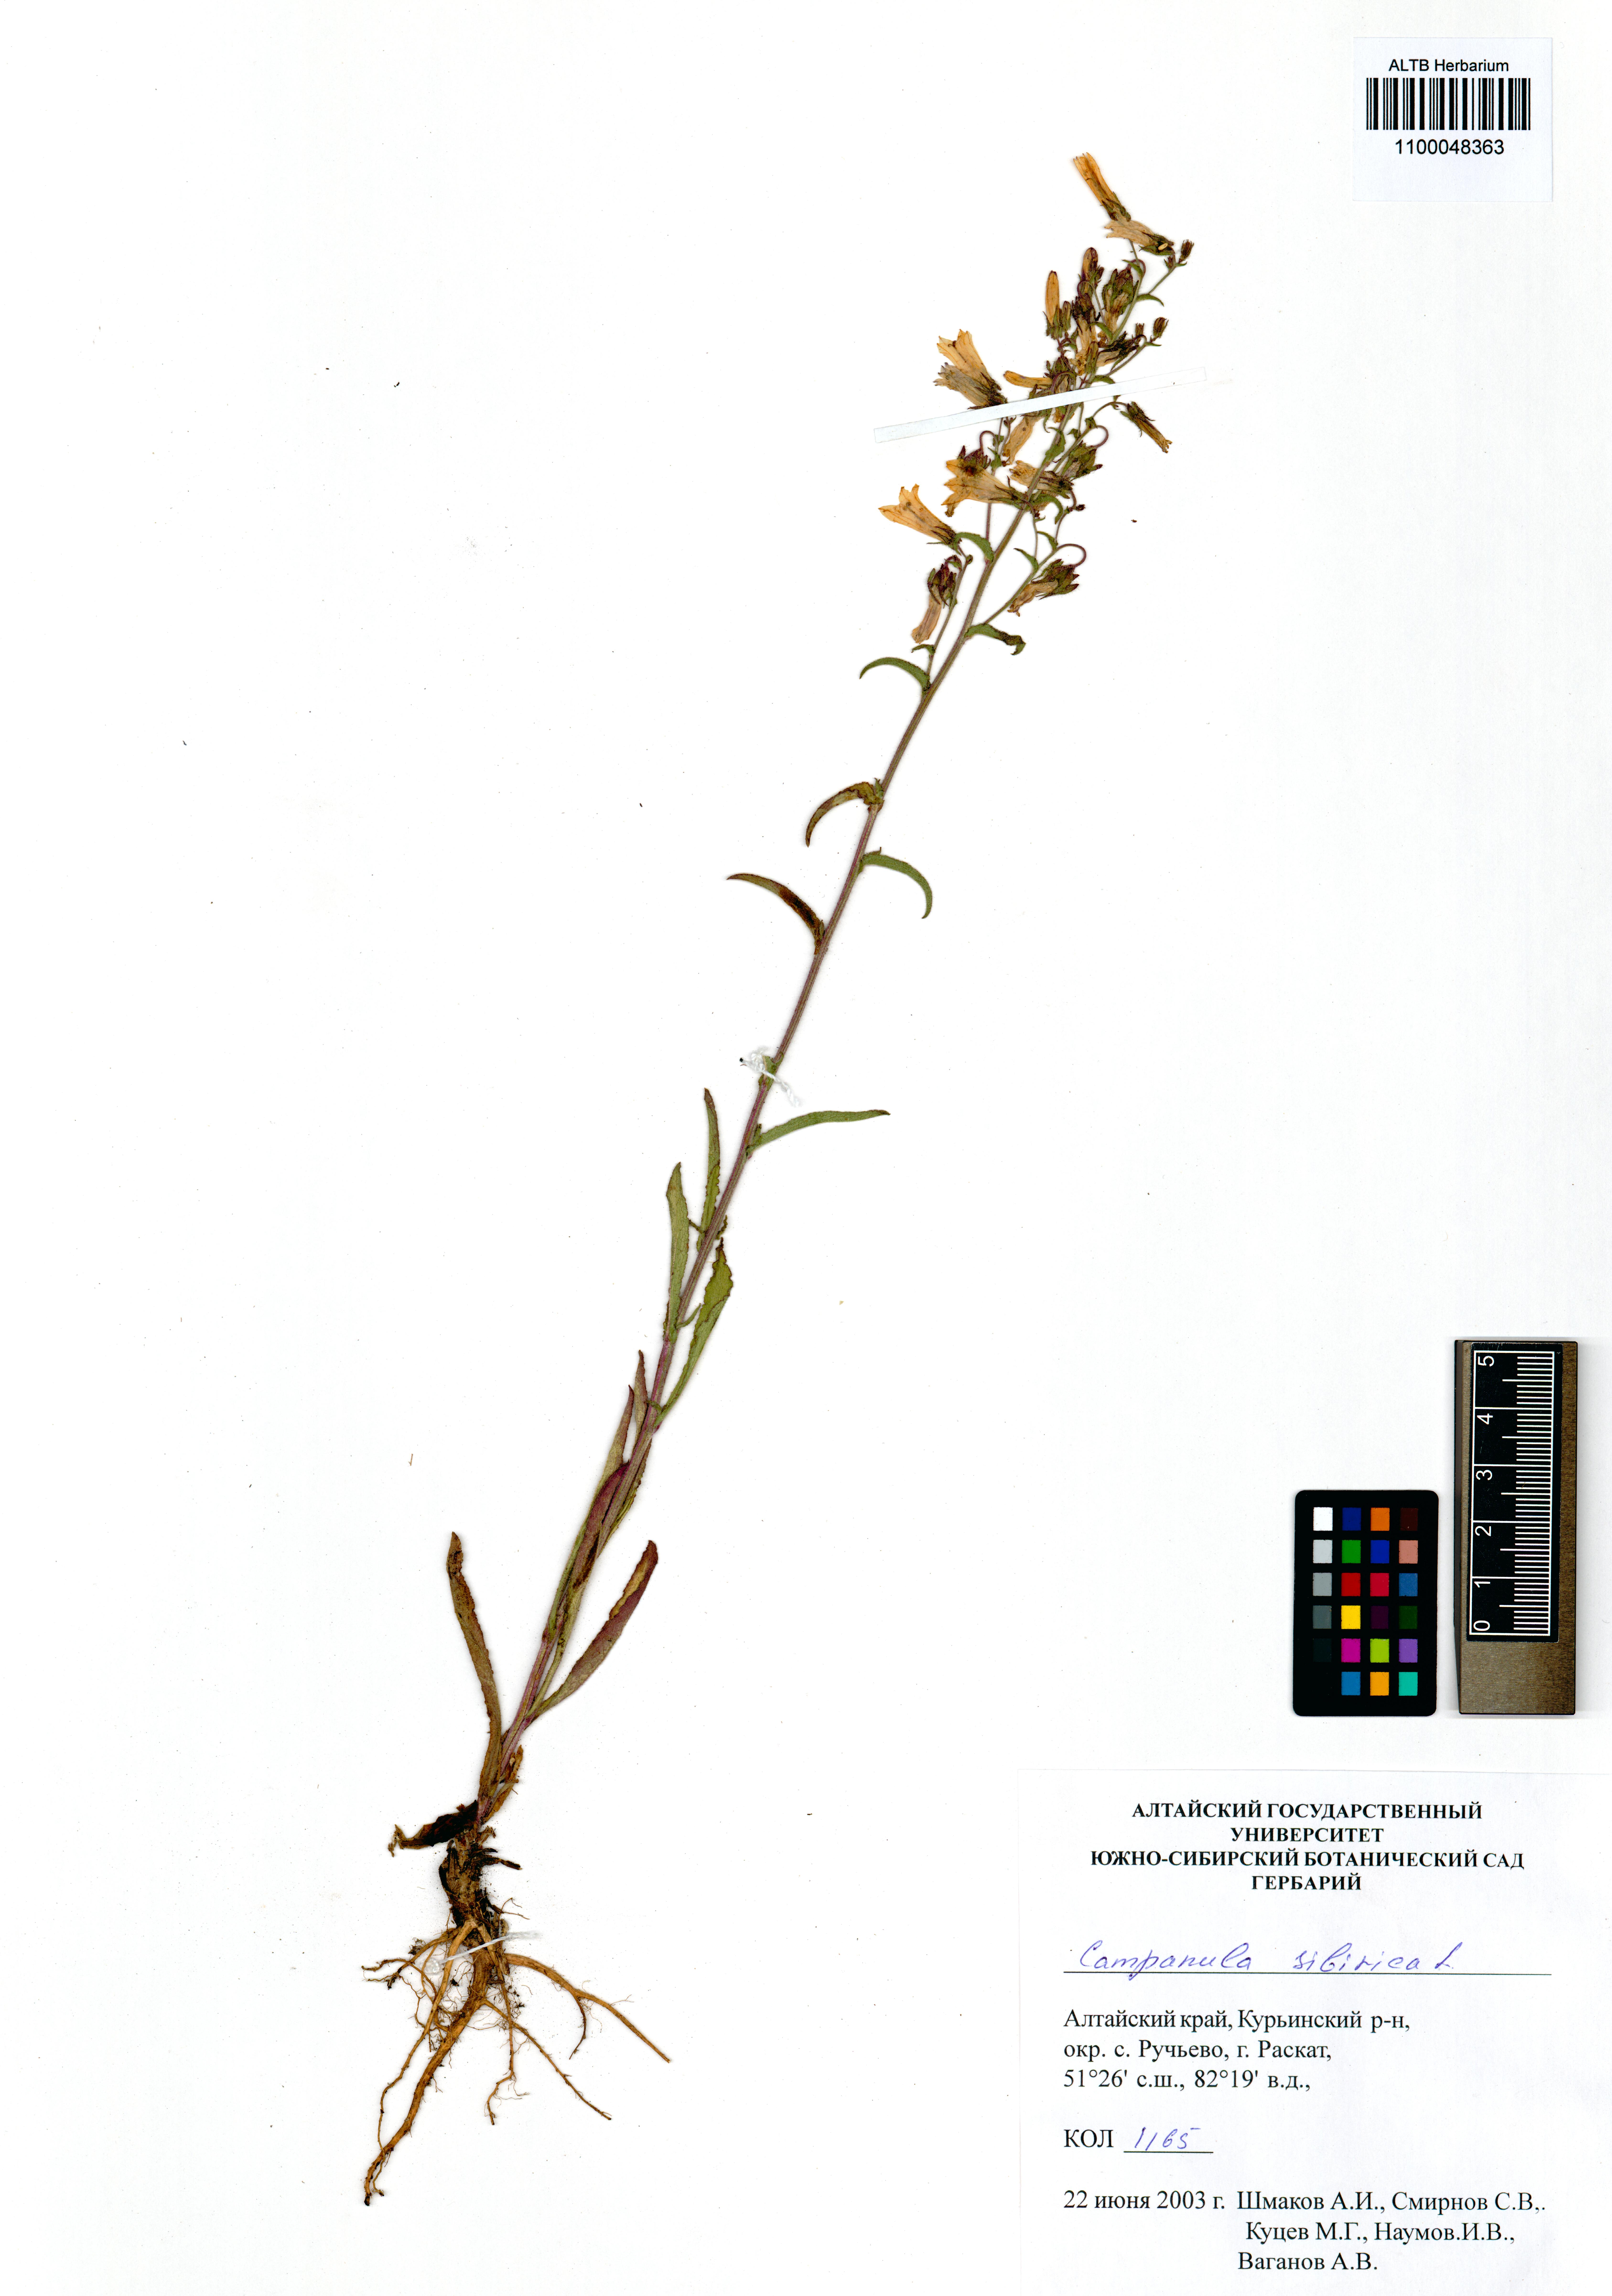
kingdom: Plantae
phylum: Tracheophyta
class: Magnoliopsida
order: Asterales
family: Campanulaceae
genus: Campanula
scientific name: Campanula sibirica
